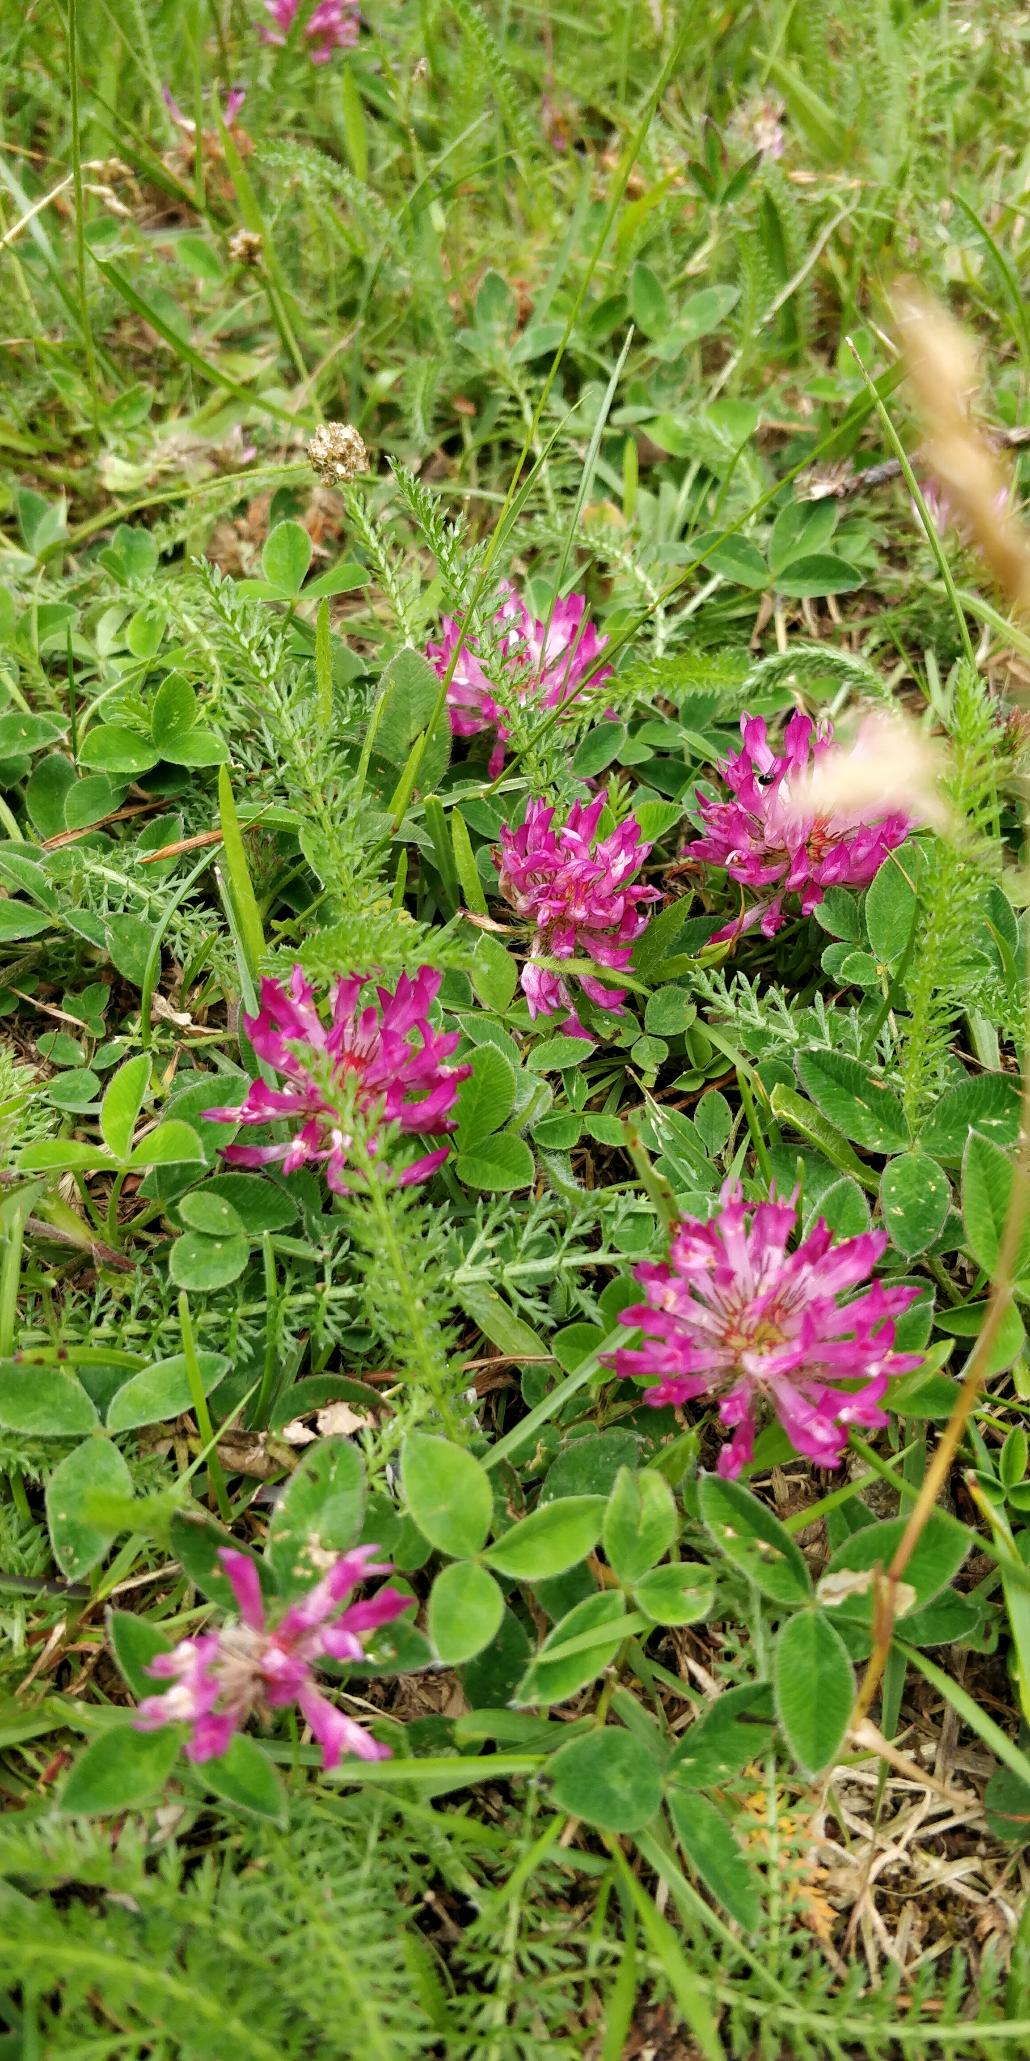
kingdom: Plantae
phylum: Tracheophyta
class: Magnoliopsida
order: Fabales
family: Fabaceae
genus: Trifolium
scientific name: Trifolium medium
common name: Bugtet kløver
